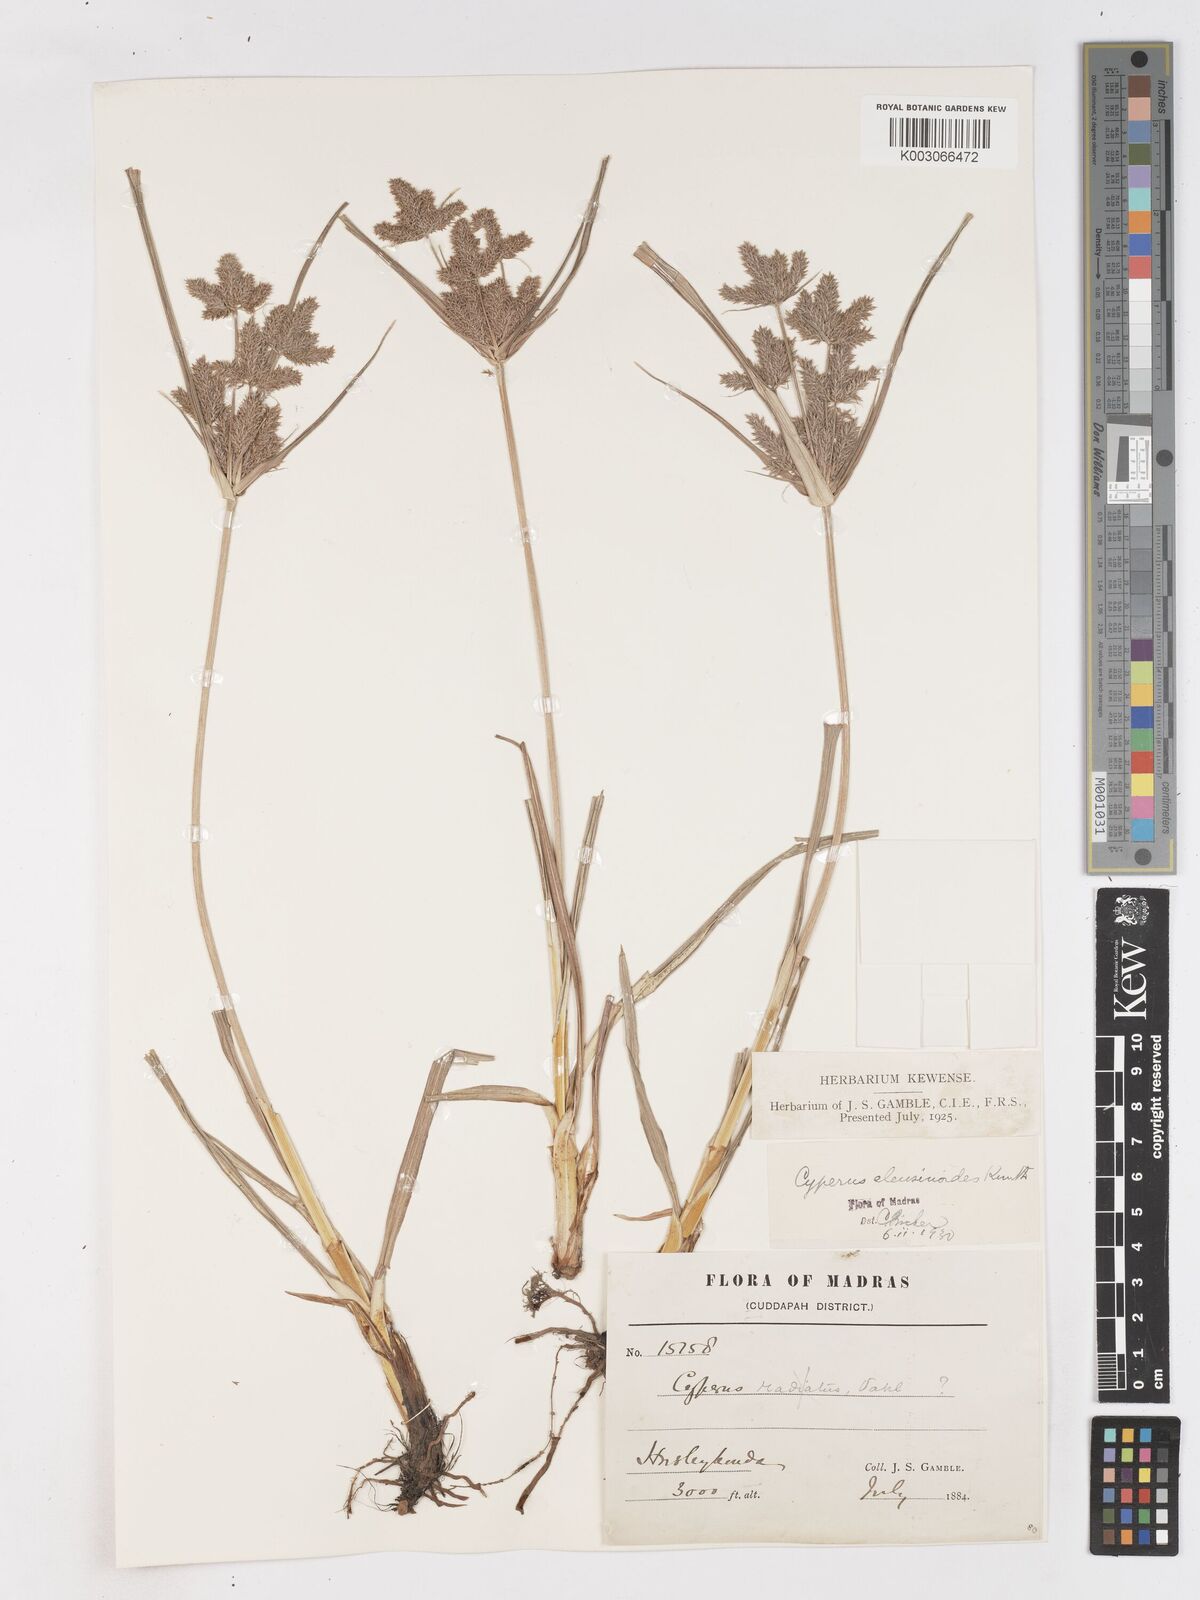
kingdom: Plantae
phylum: Tracheophyta
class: Liliopsida
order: Poales
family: Cyperaceae
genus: Cyperus
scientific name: Cyperus nutans
